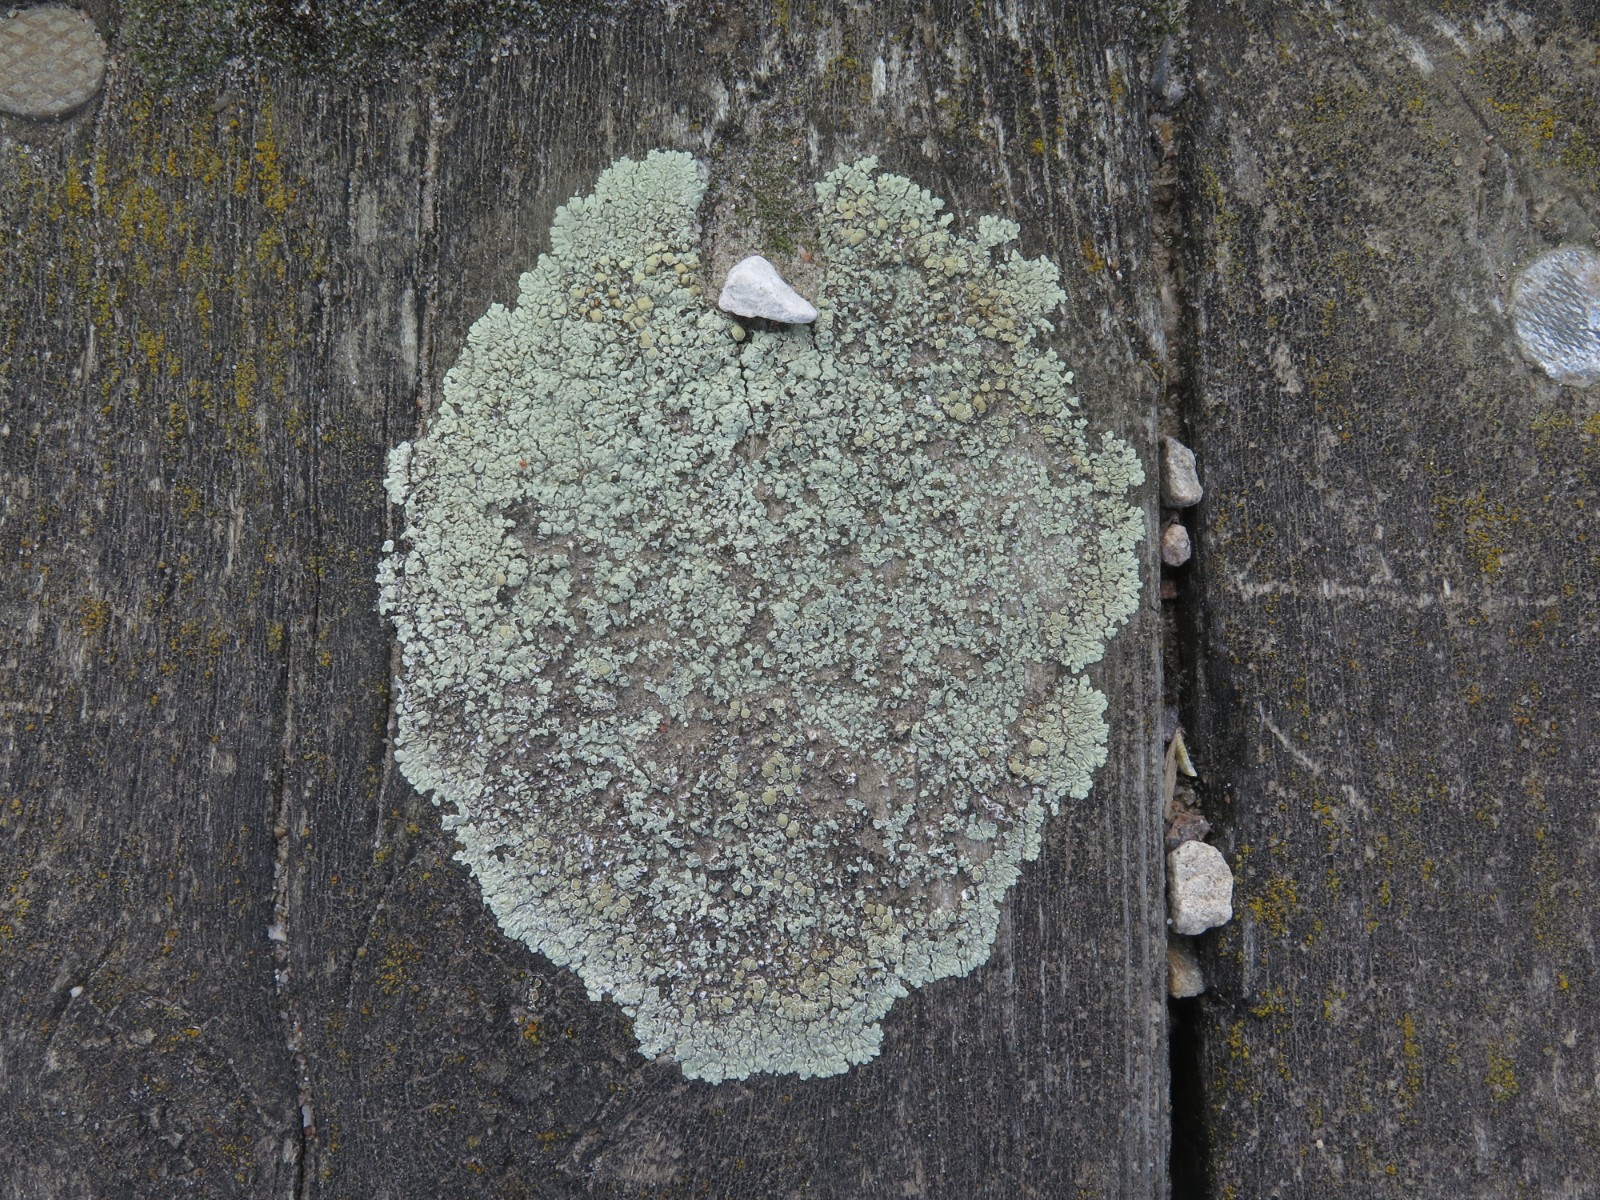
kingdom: Fungi
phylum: Ascomycota
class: Lecanoromycetes
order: Lecanorales
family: Lecanoraceae
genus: Protoparmeliopsis
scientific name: Protoparmeliopsis muralis
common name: randfliget kantskivelav
